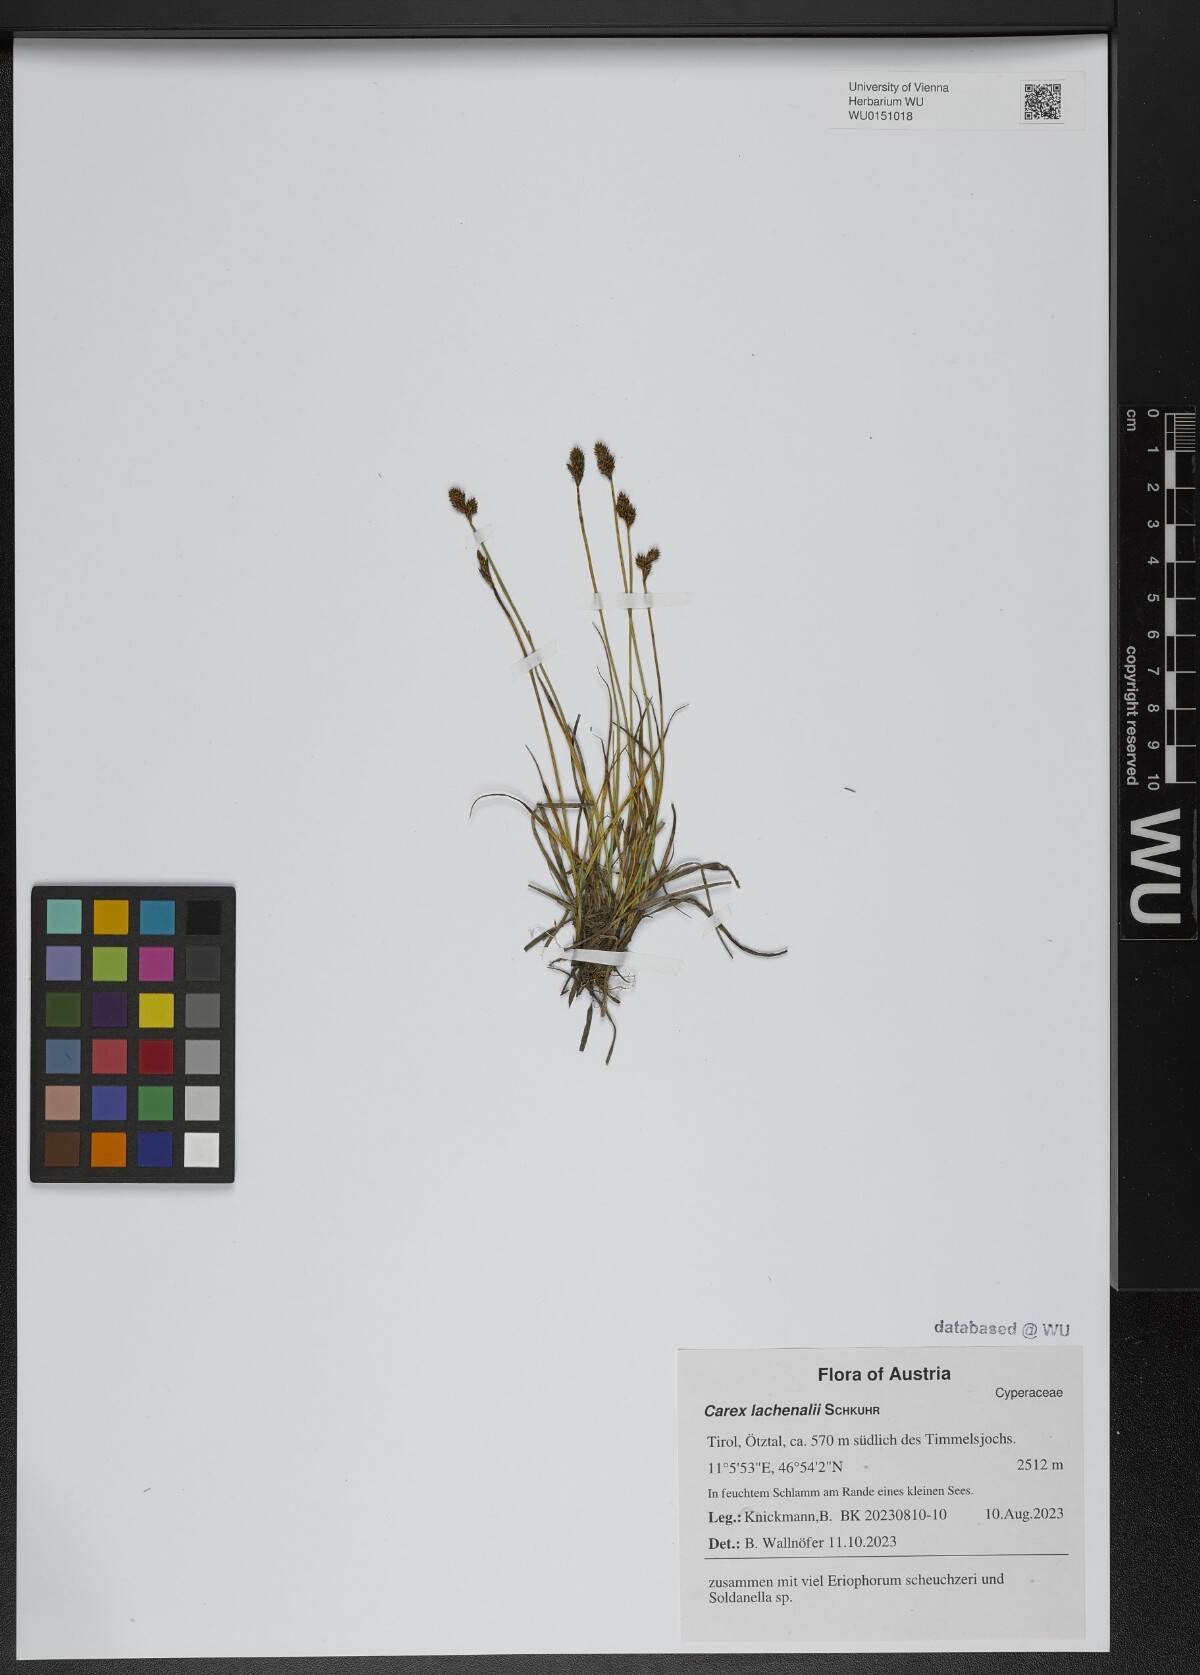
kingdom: Plantae
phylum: Tracheophyta
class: Liliopsida
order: Poales
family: Cyperaceae
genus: Carex
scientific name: Carex lachenalii
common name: Hare's-foot sedge
